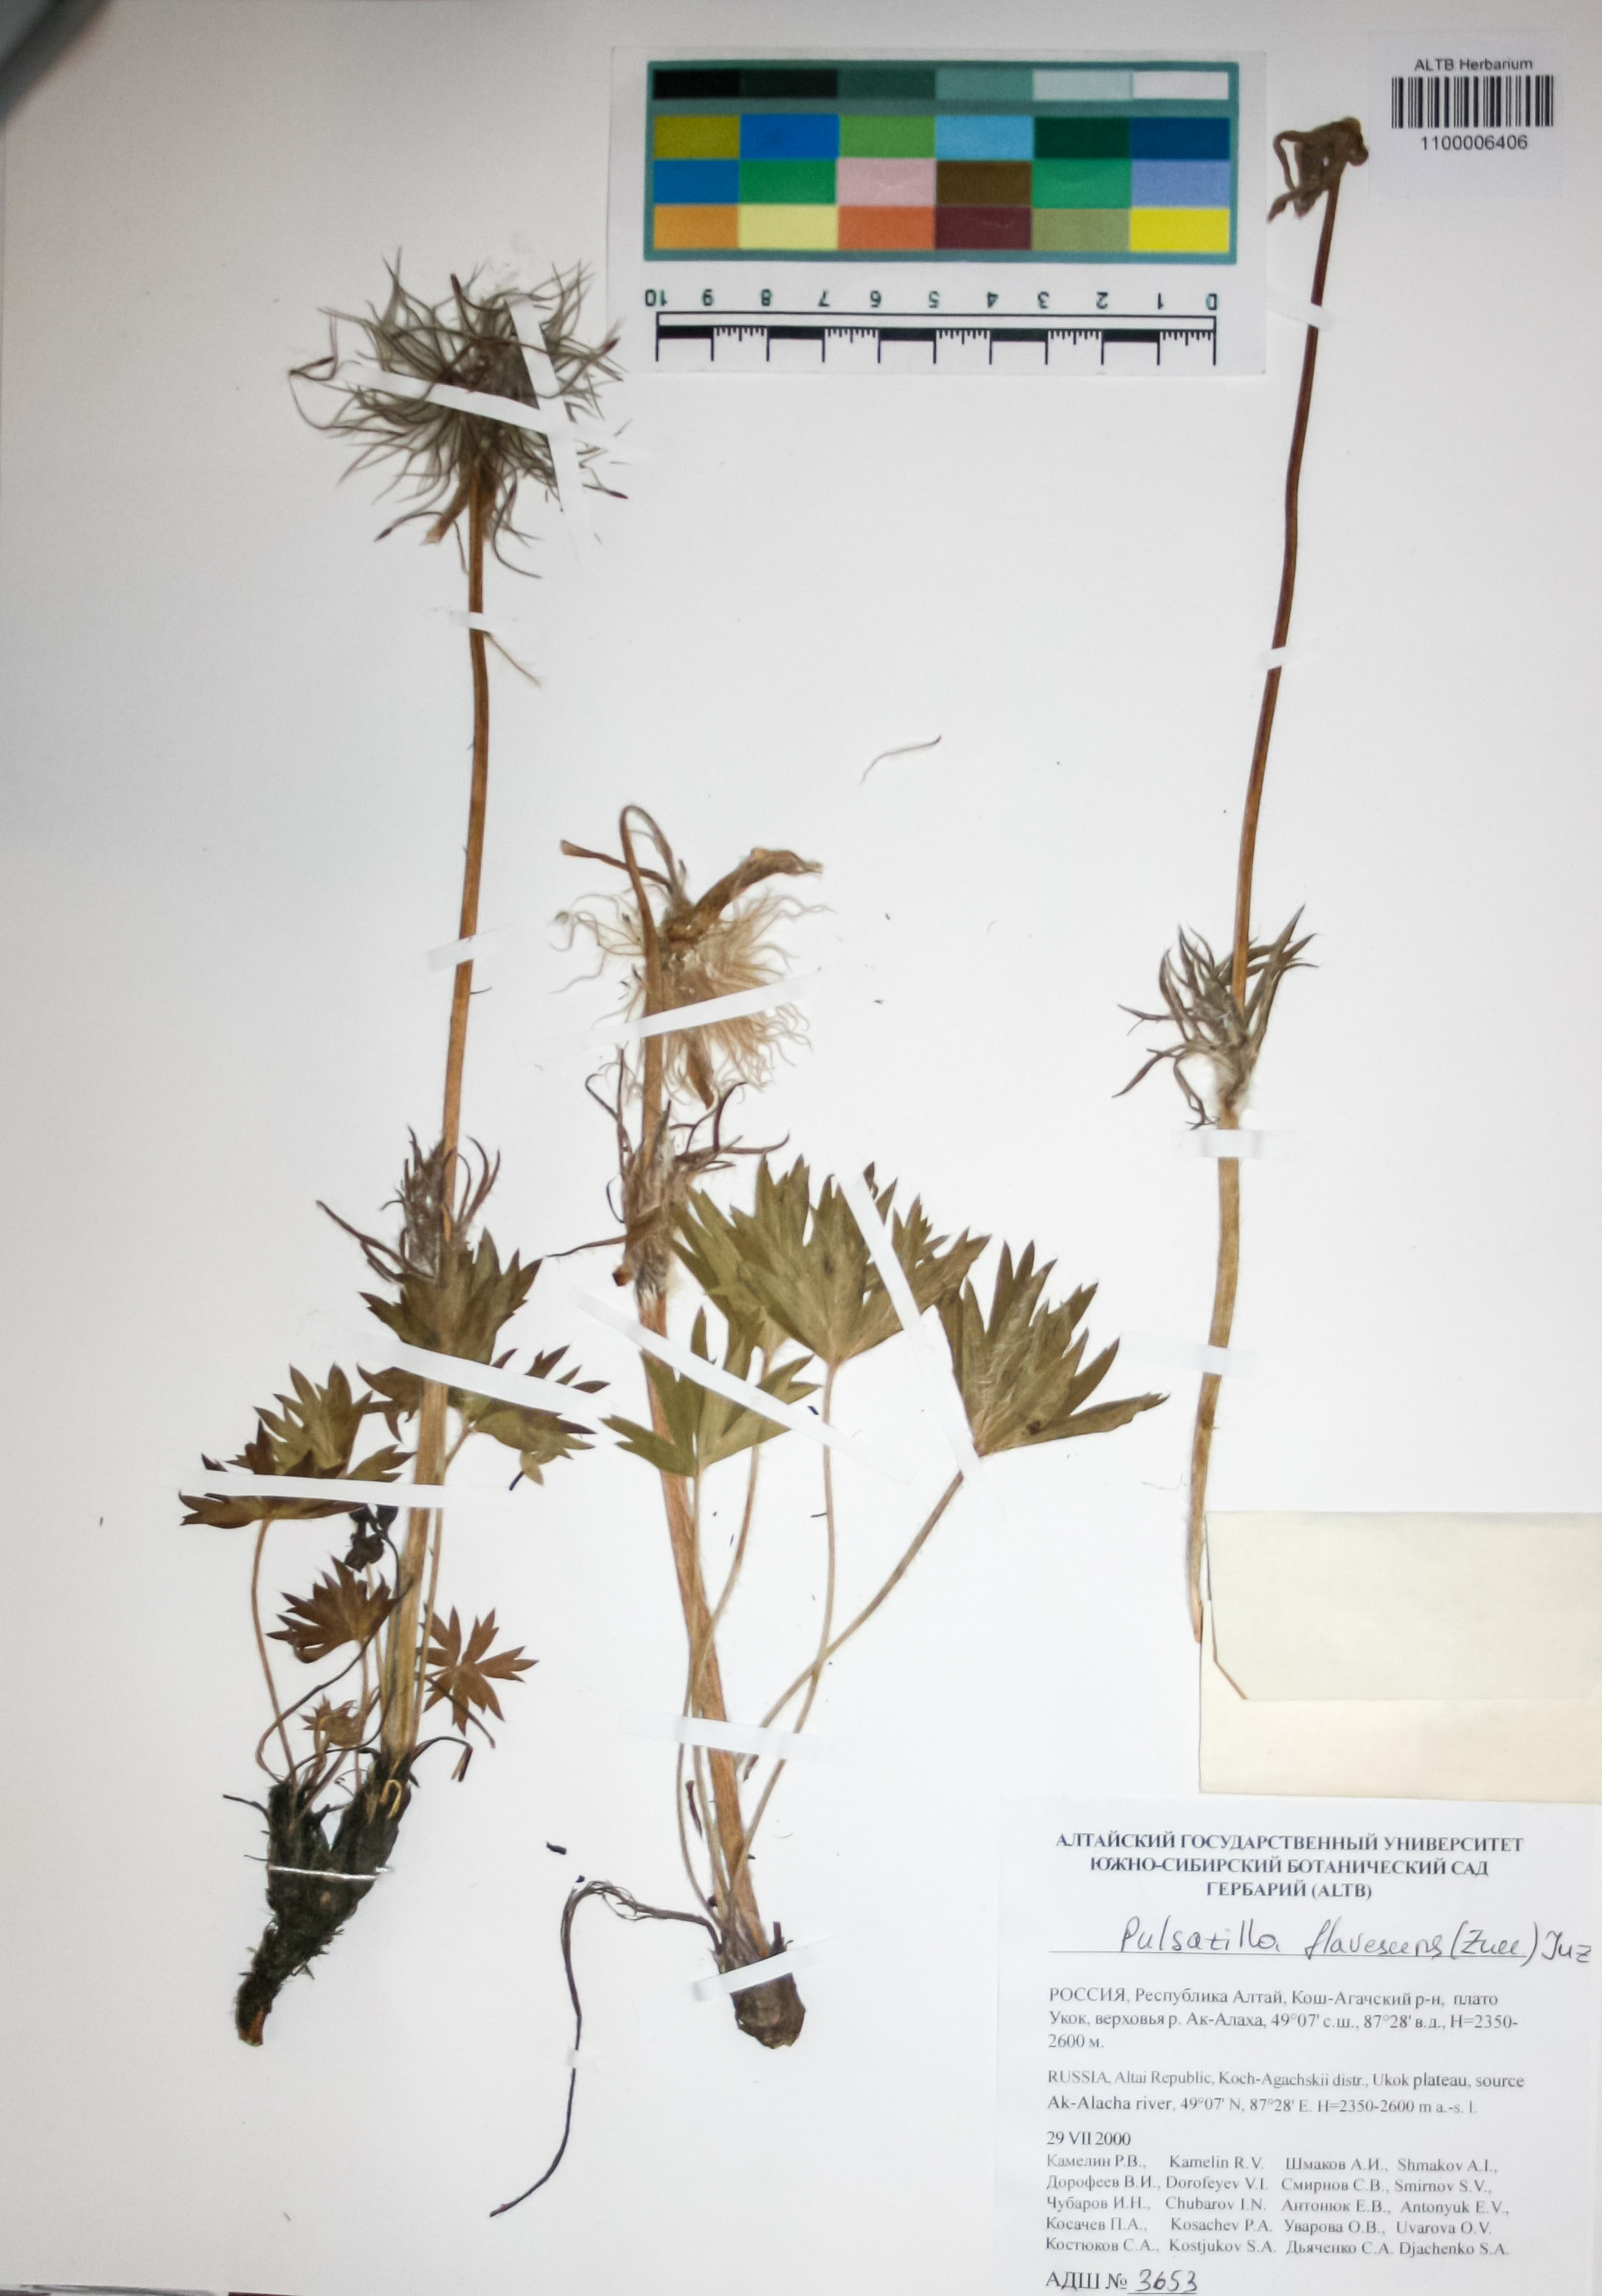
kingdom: Plantae
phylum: Tracheophyta
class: Magnoliopsida
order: Ranunculales
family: Ranunculaceae
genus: Pulsatilla
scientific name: Pulsatilla patens
